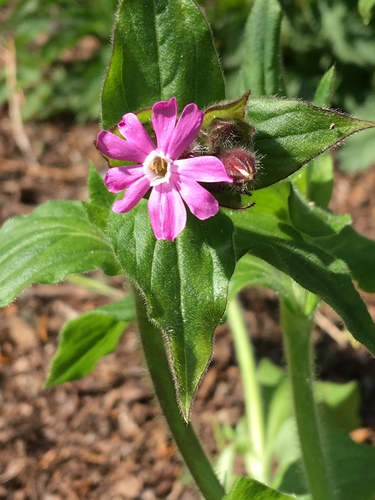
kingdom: Plantae
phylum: Tracheophyta
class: Magnoliopsida
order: Caryophyllales
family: Caryophyllaceae
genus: Silene
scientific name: Silene dioica
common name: Red campion
